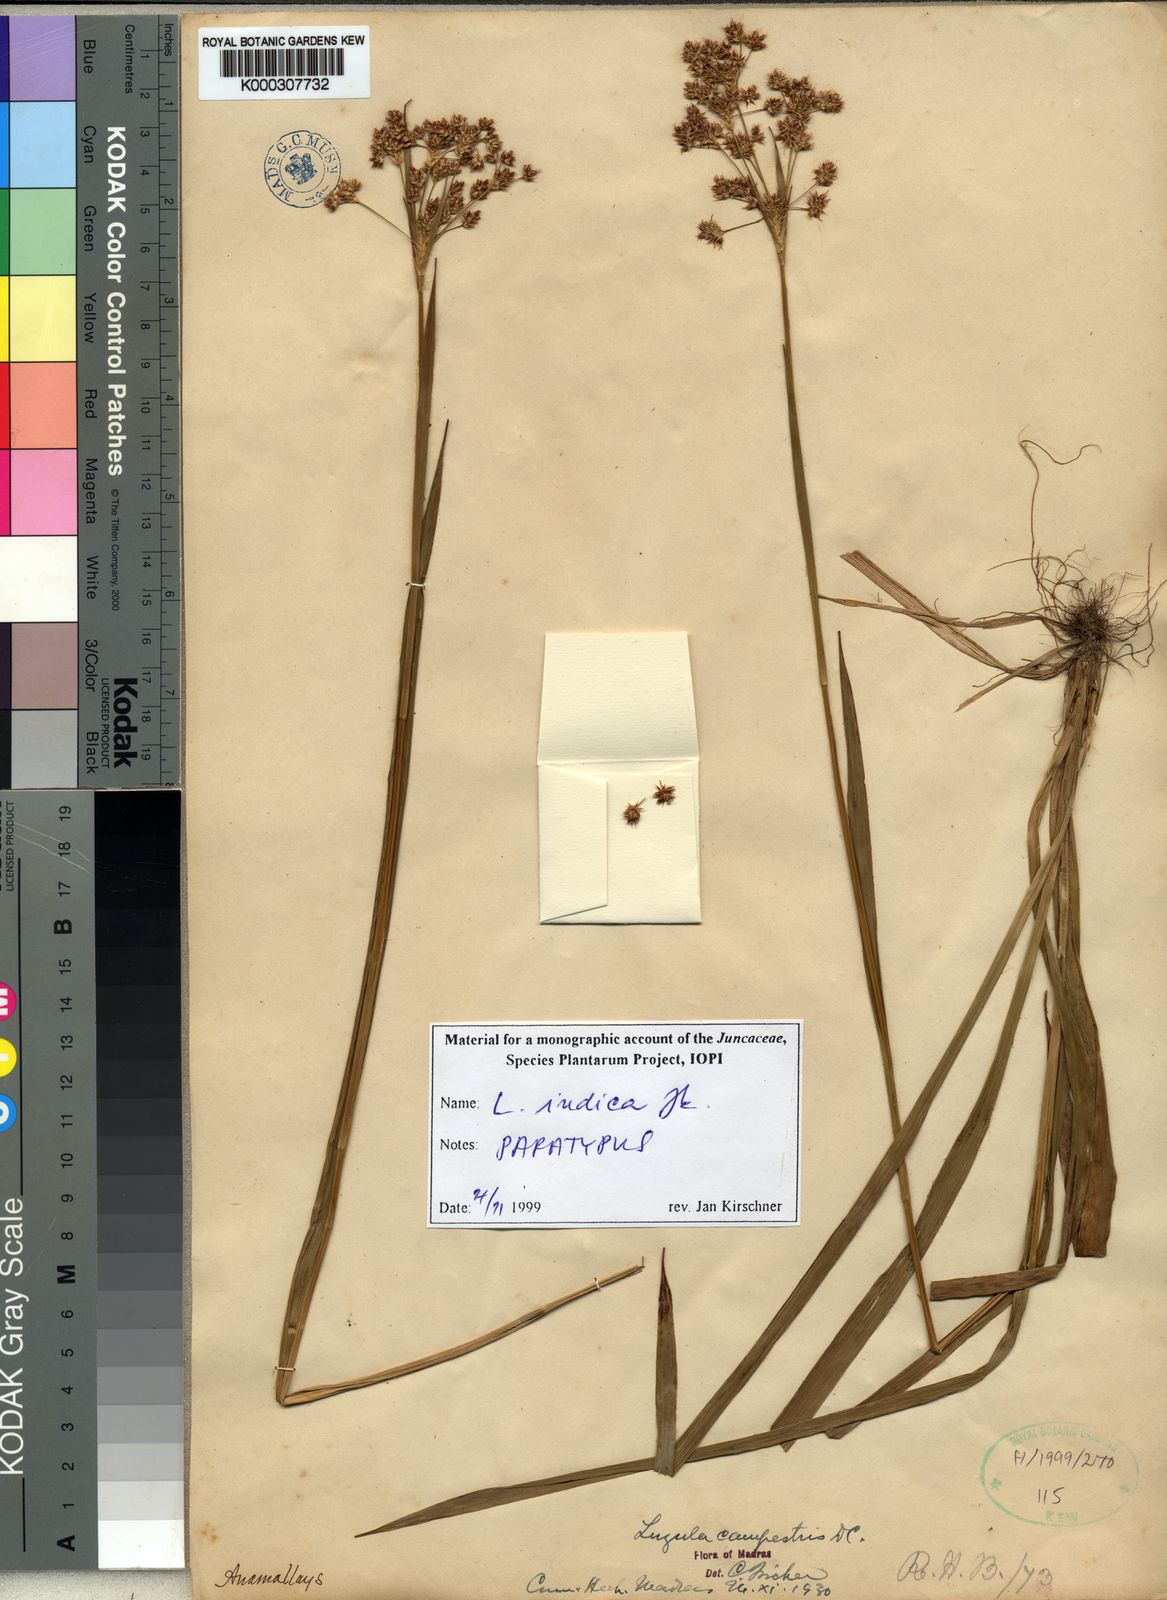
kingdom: Plantae
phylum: Tracheophyta
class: Liliopsida
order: Poales
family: Juncaceae
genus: Luzula
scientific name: Luzula indica
